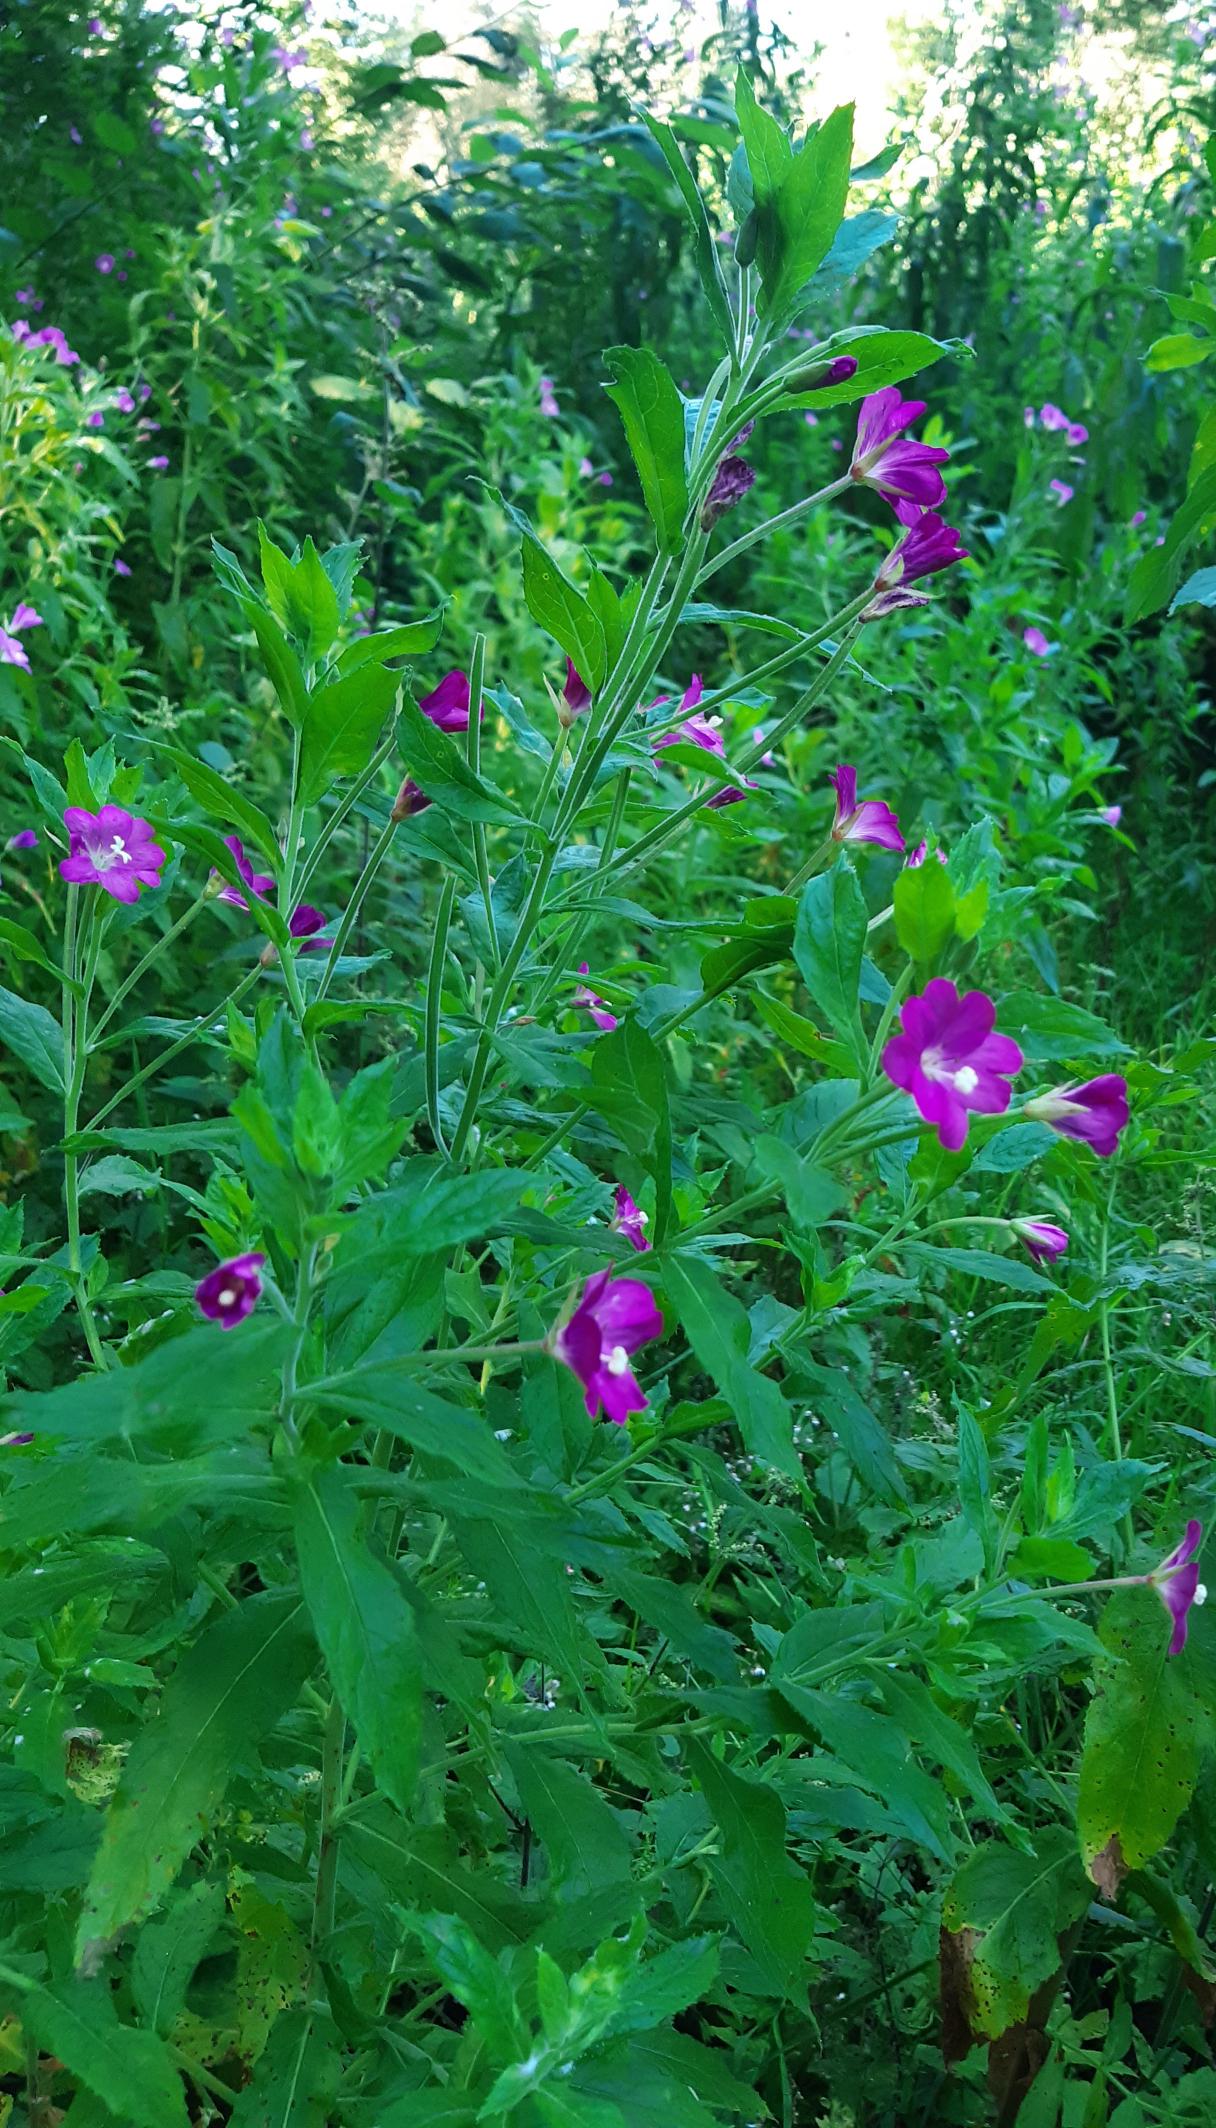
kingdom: Plantae
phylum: Tracheophyta
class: Magnoliopsida
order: Myrtales
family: Onagraceae
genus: Epilobium
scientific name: Epilobium hirsutum
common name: Lådden dueurt
